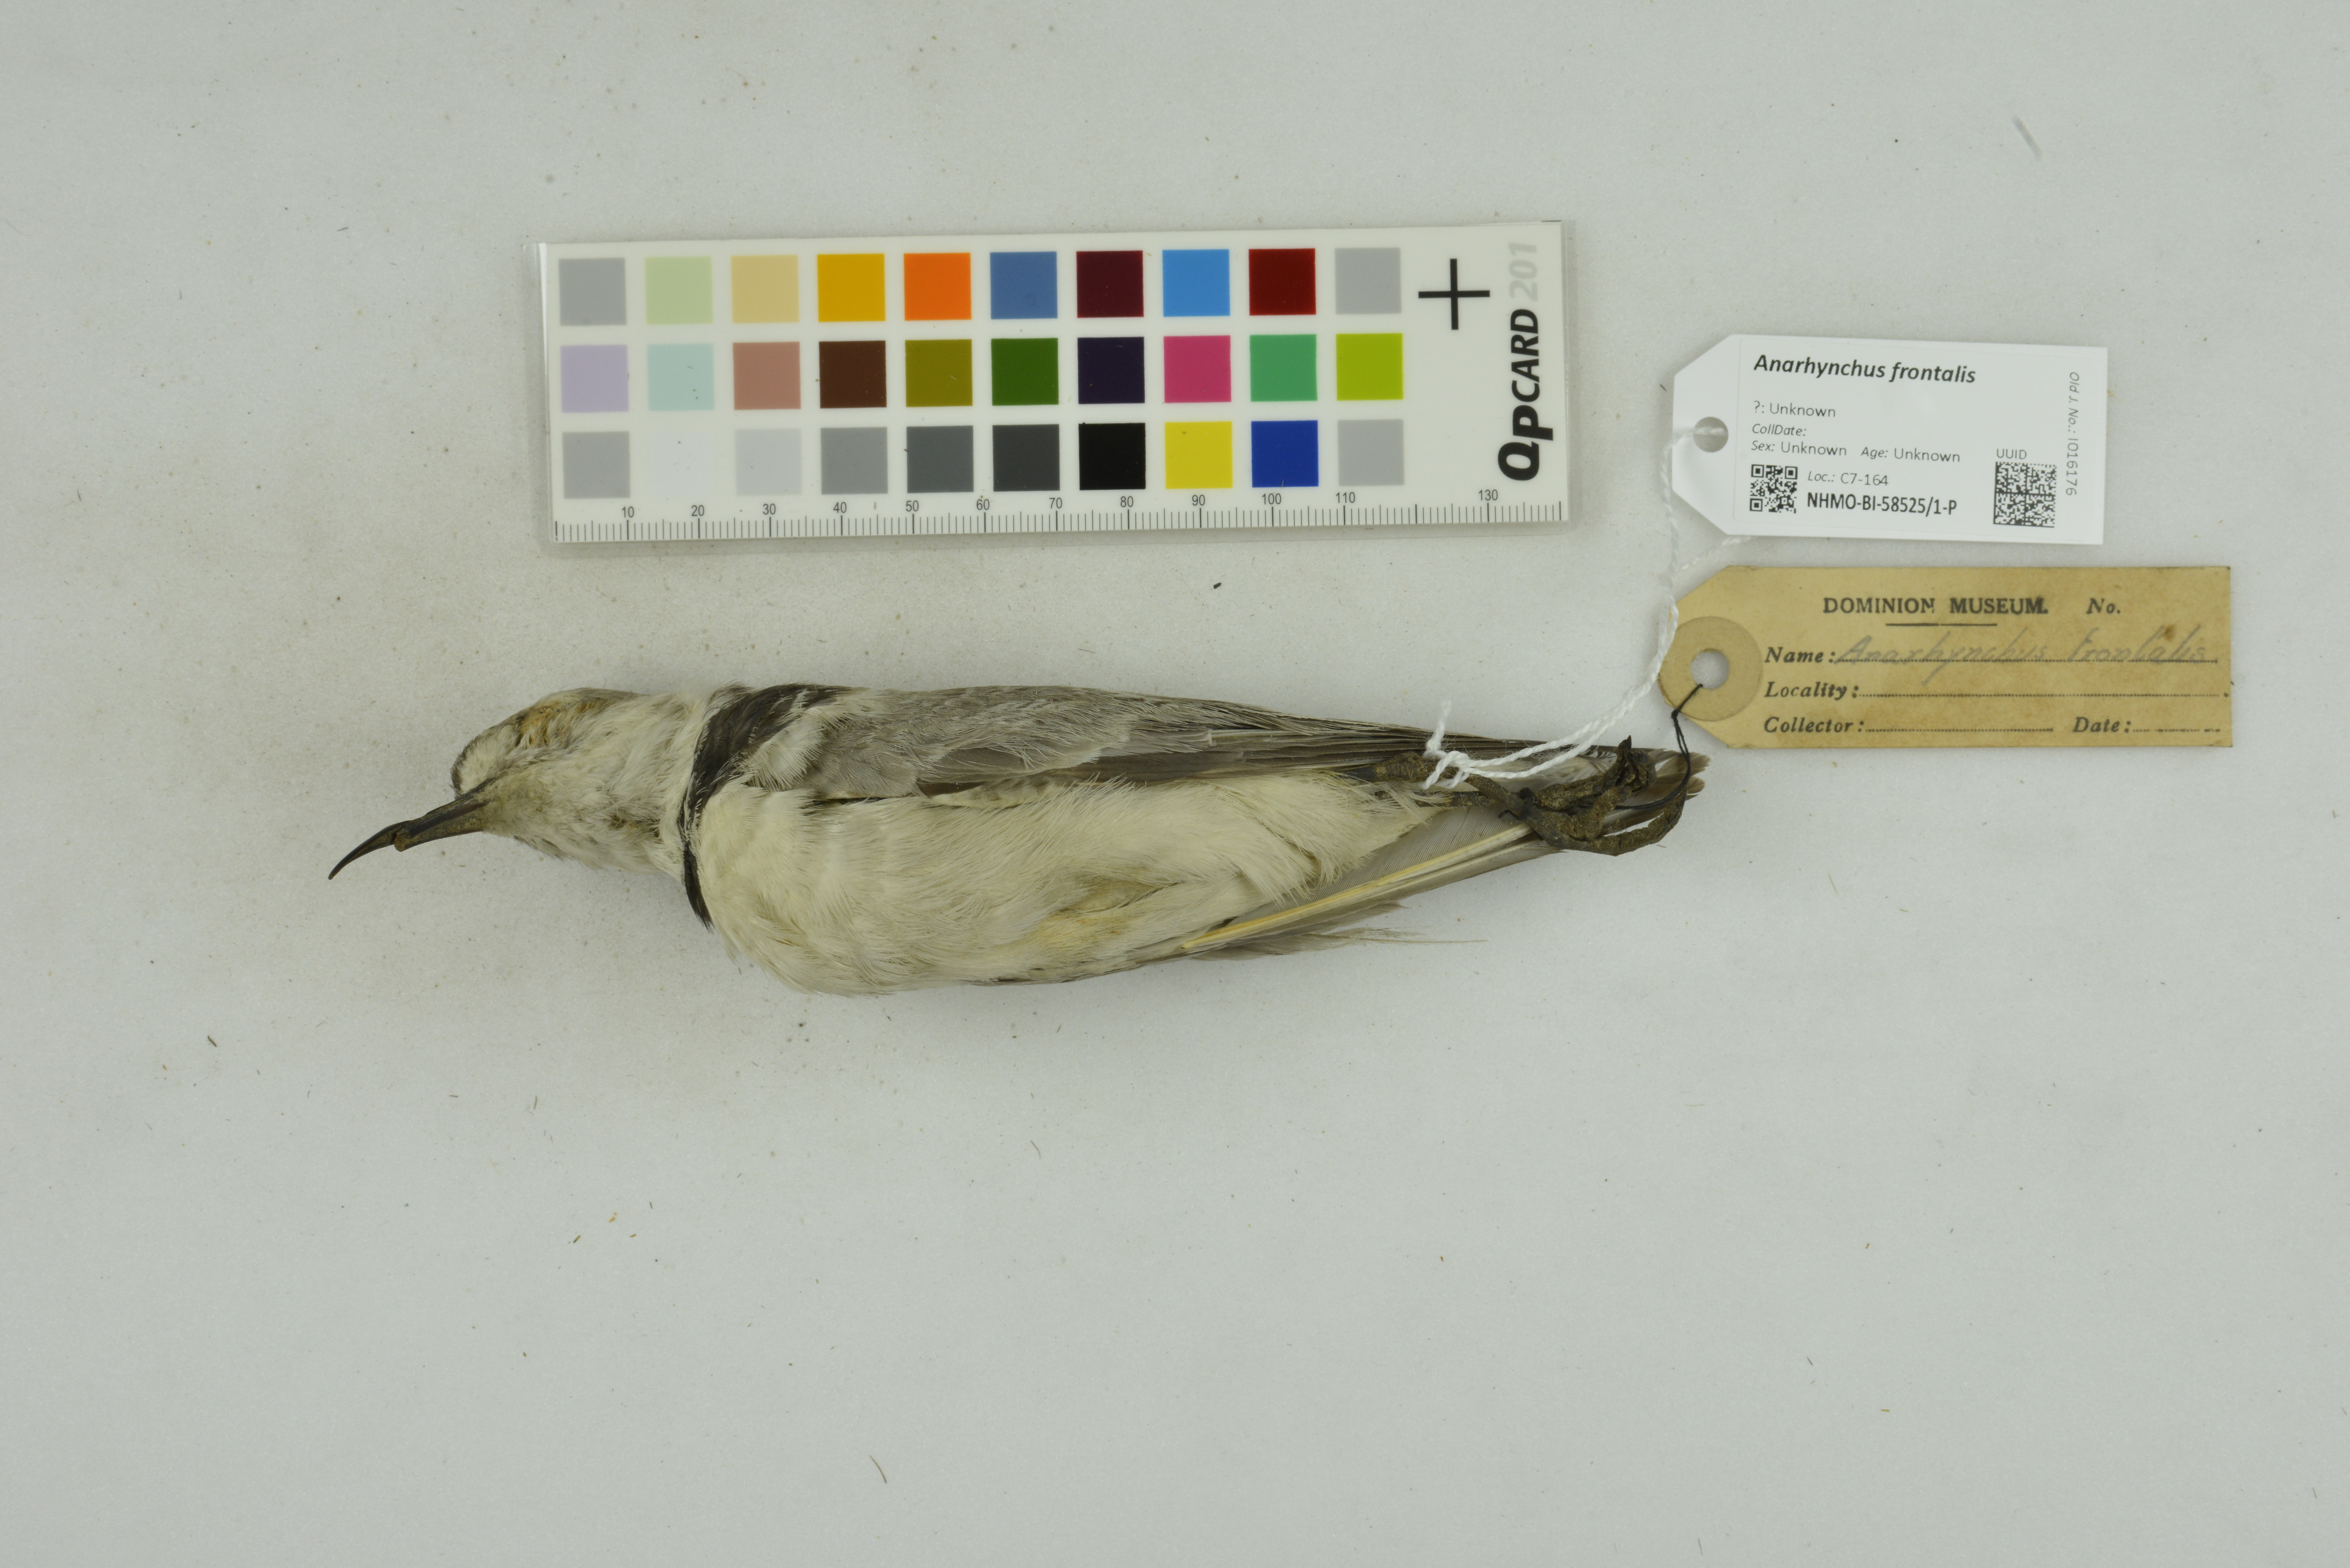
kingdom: Animalia
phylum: Chordata
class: Aves
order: Charadriiformes
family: Charadriidae
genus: Anarhynchus
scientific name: Anarhynchus frontalis
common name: Wrybill
